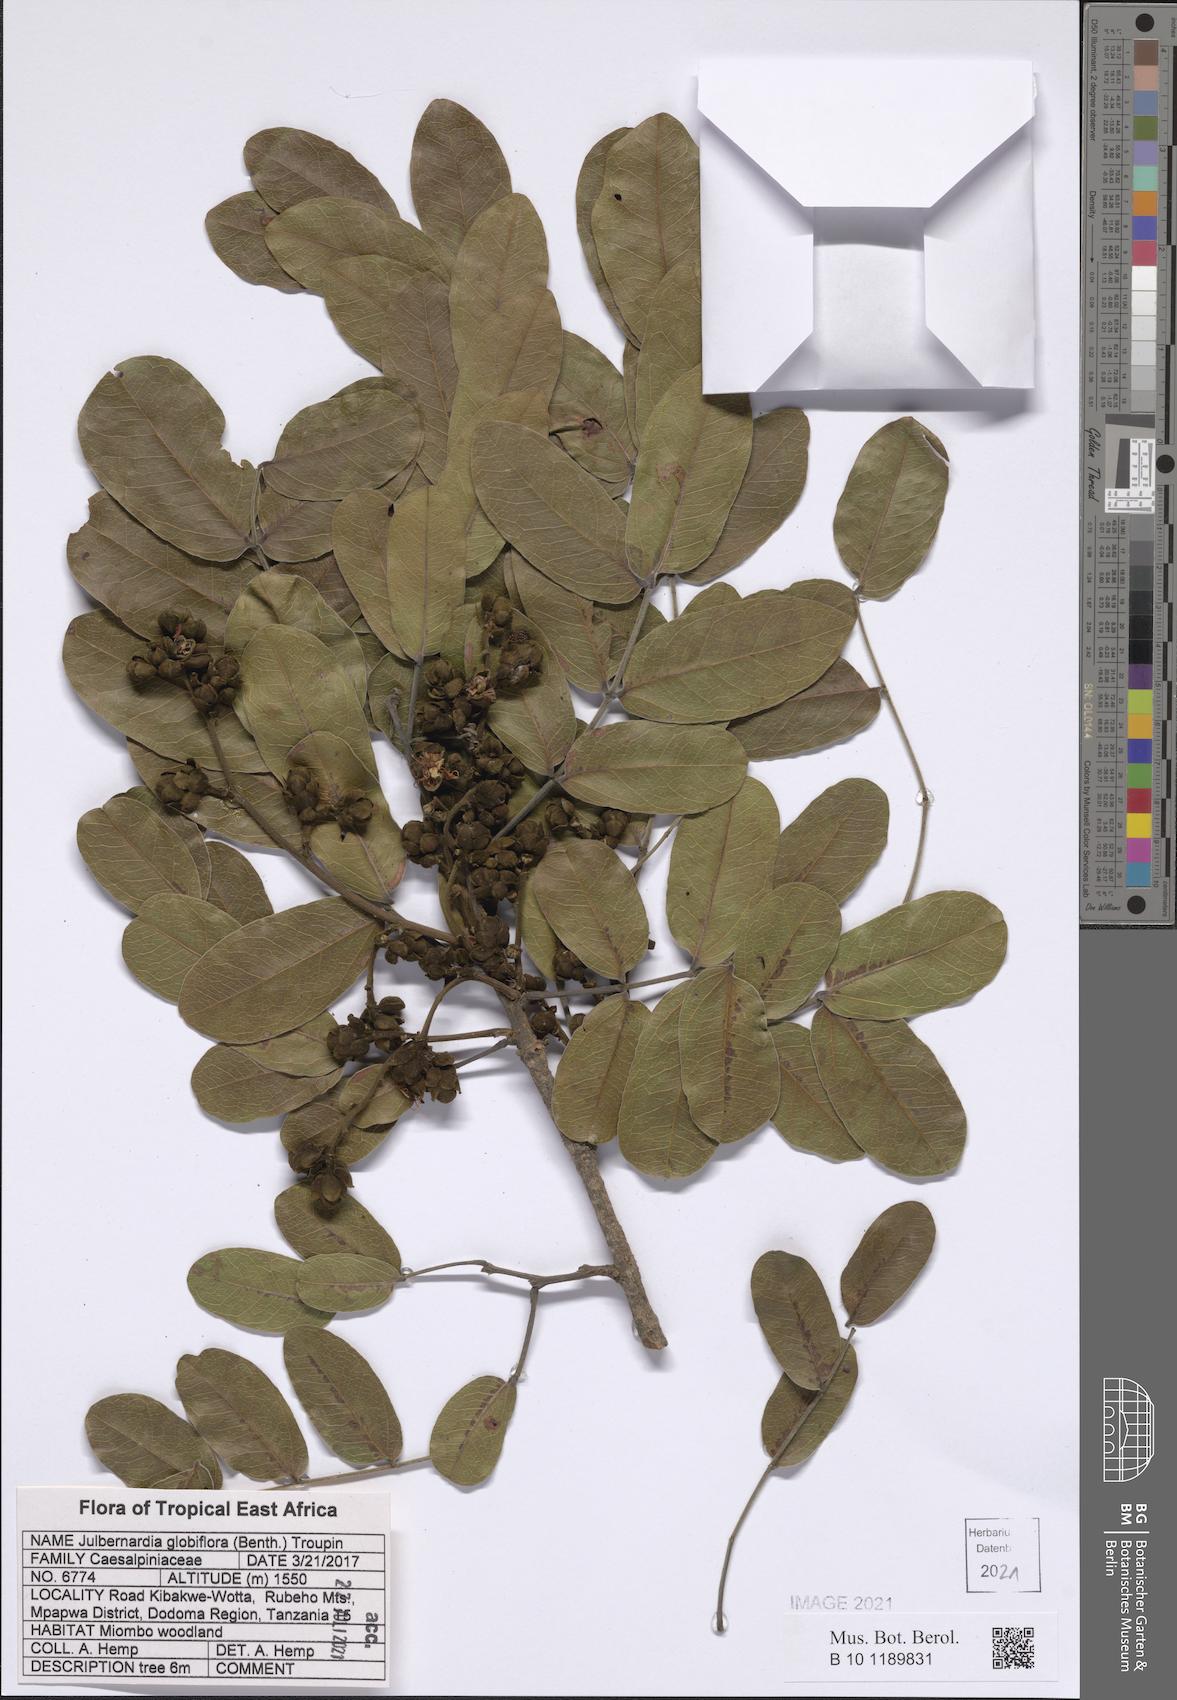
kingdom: Plantae
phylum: Tracheophyta
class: Magnoliopsida
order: Fabales
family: Fabaceae
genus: Julbernardia
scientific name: Julbernardia globiflora
